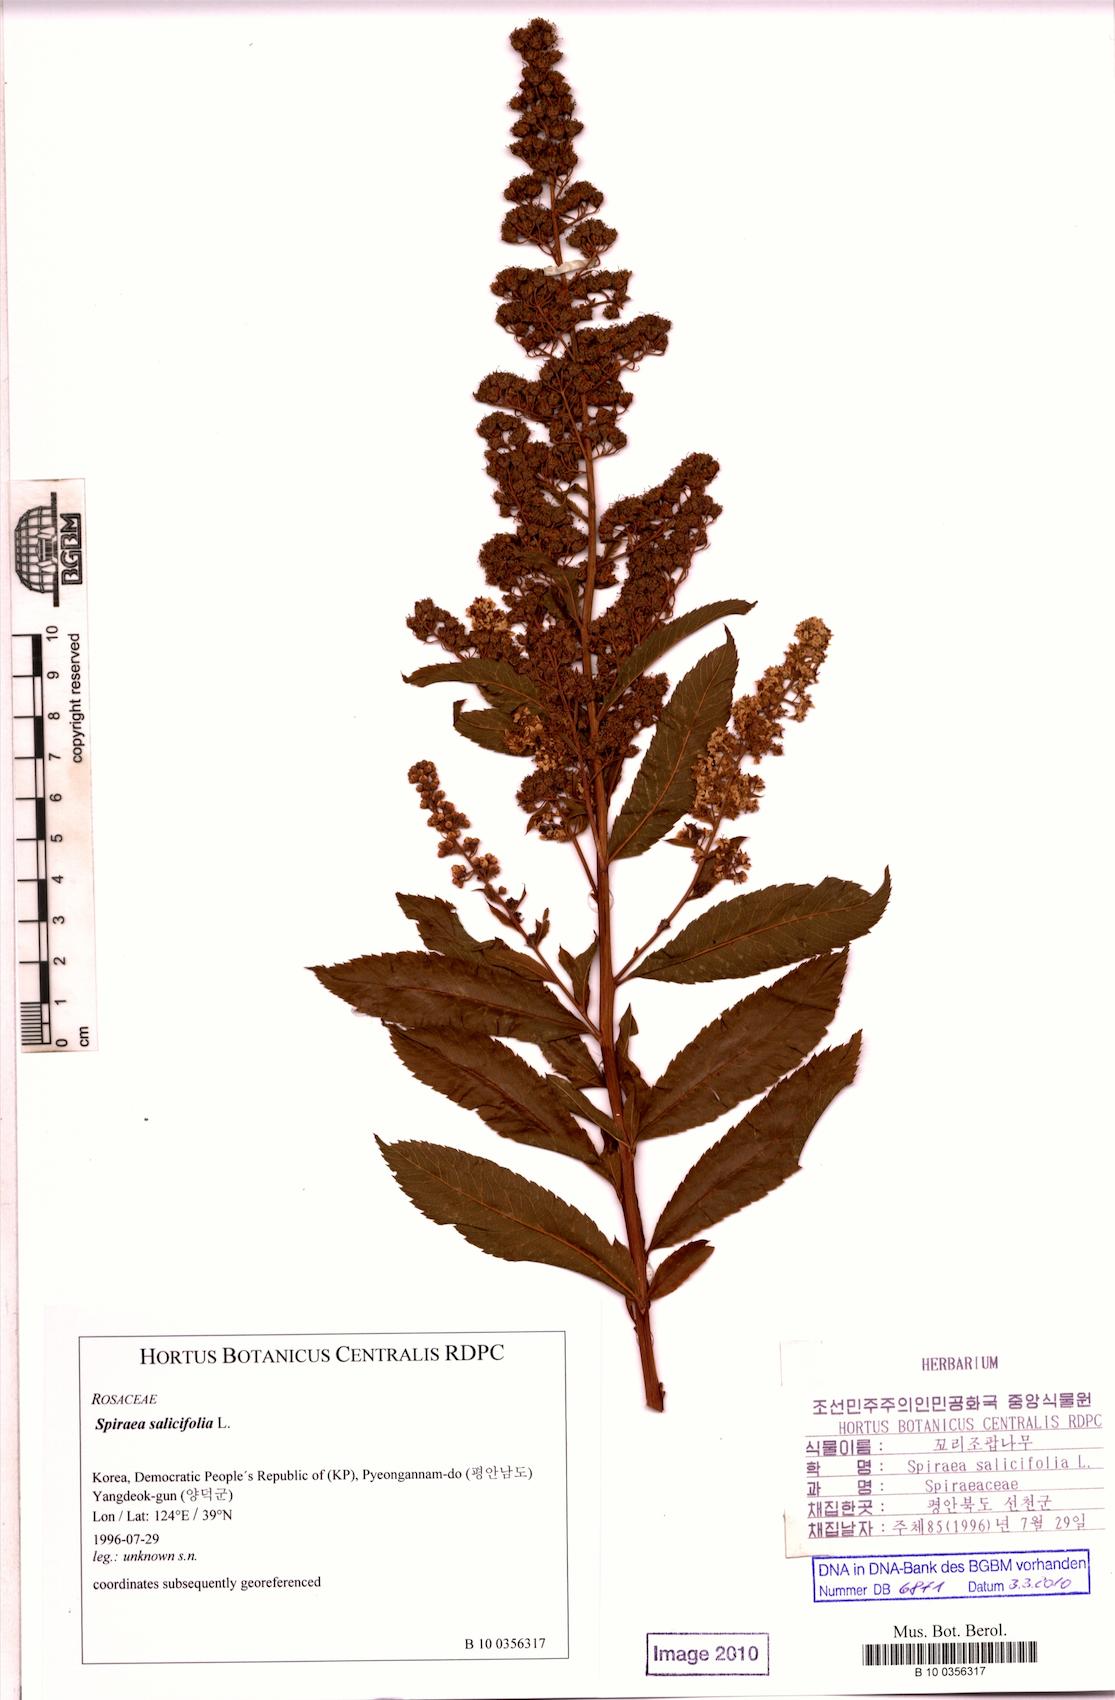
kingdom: Plantae
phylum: Tracheophyta
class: Magnoliopsida
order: Rosales
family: Rosaceae
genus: Spiraea
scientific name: Spiraea salicifolia
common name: Bridewort
